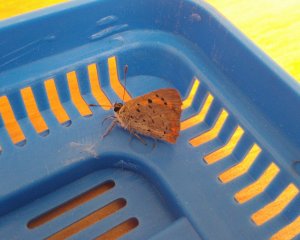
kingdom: Animalia
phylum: Arthropoda
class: Insecta
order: Lepidoptera
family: Lycaenidae
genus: Lycaena
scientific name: Lycaena phlaeas
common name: American Copper
